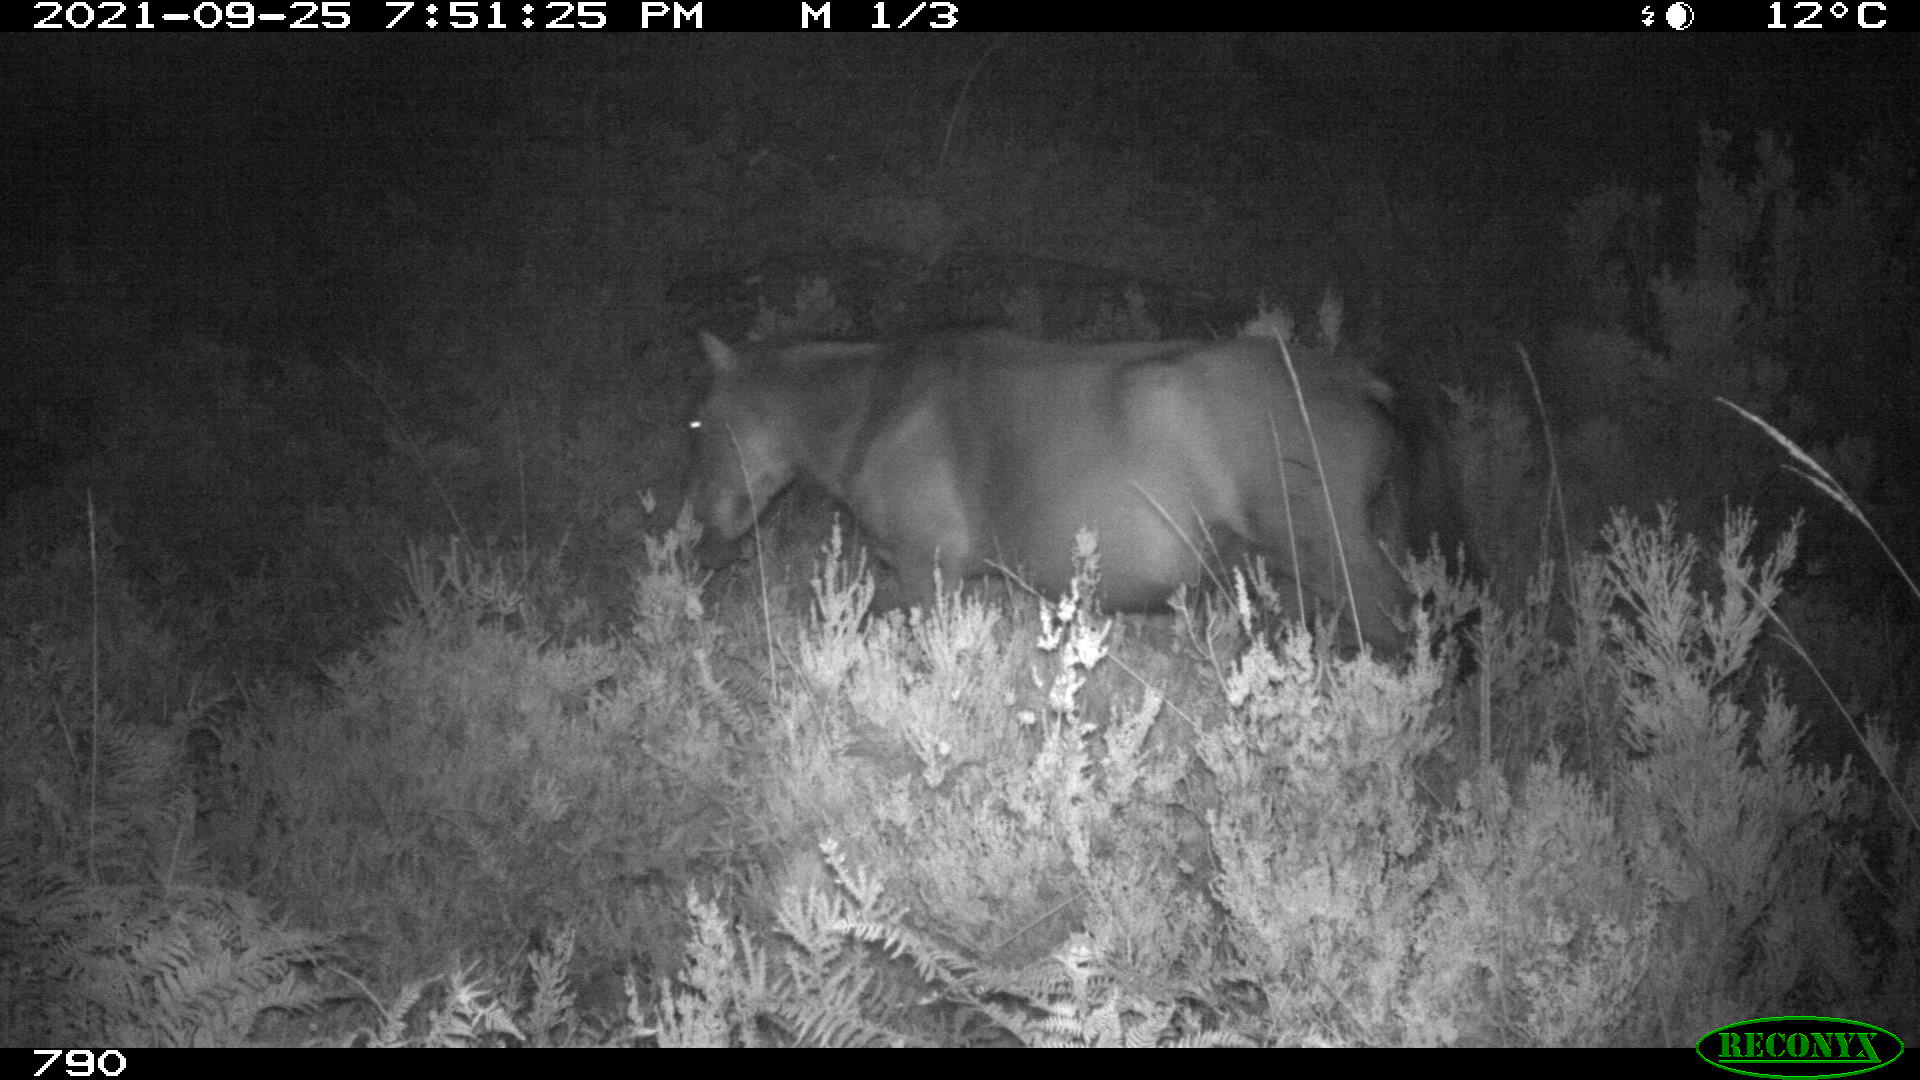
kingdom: Animalia
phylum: Chordata
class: Mammalia
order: Perissodactyla
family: Equidae
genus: Equus
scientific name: Equus caballus
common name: Horse
